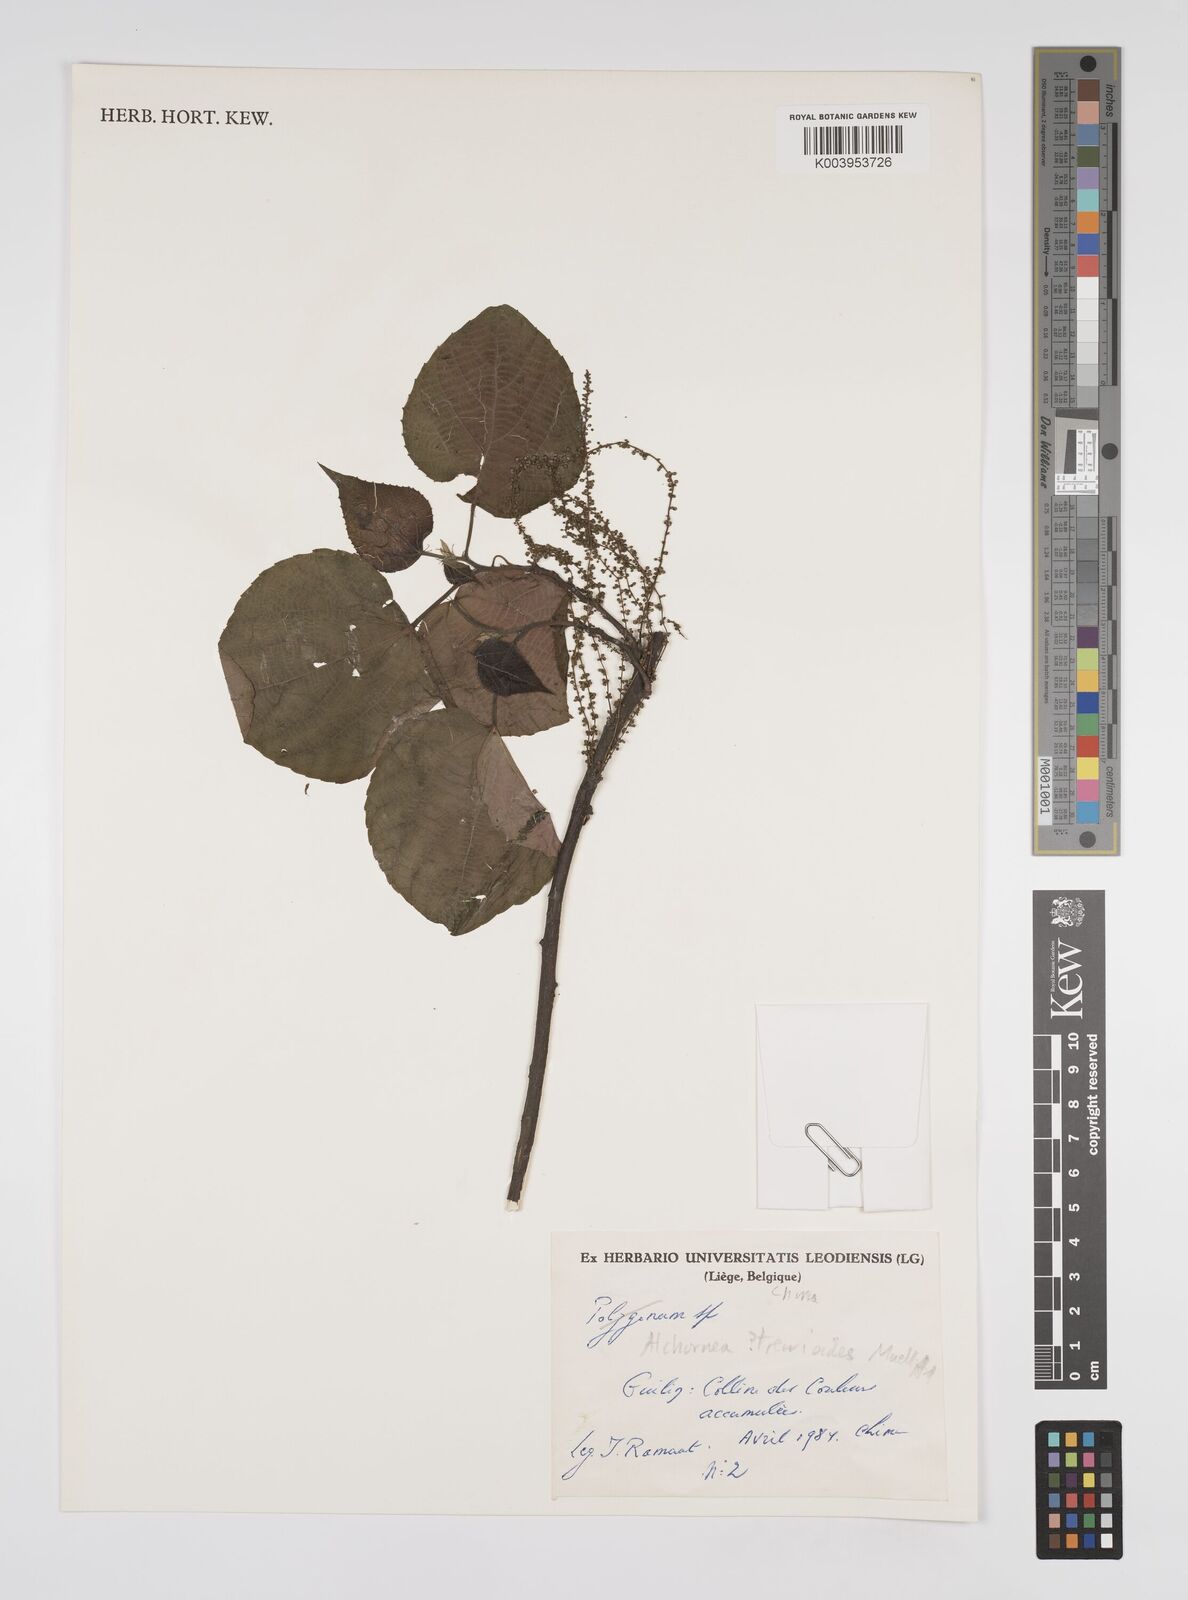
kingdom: Plantae
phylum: Tracheophyta
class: Magnoliopsida
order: Malpighiales
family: Euphorbiaceae
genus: Alchornea
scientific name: Alchornea trewioides
